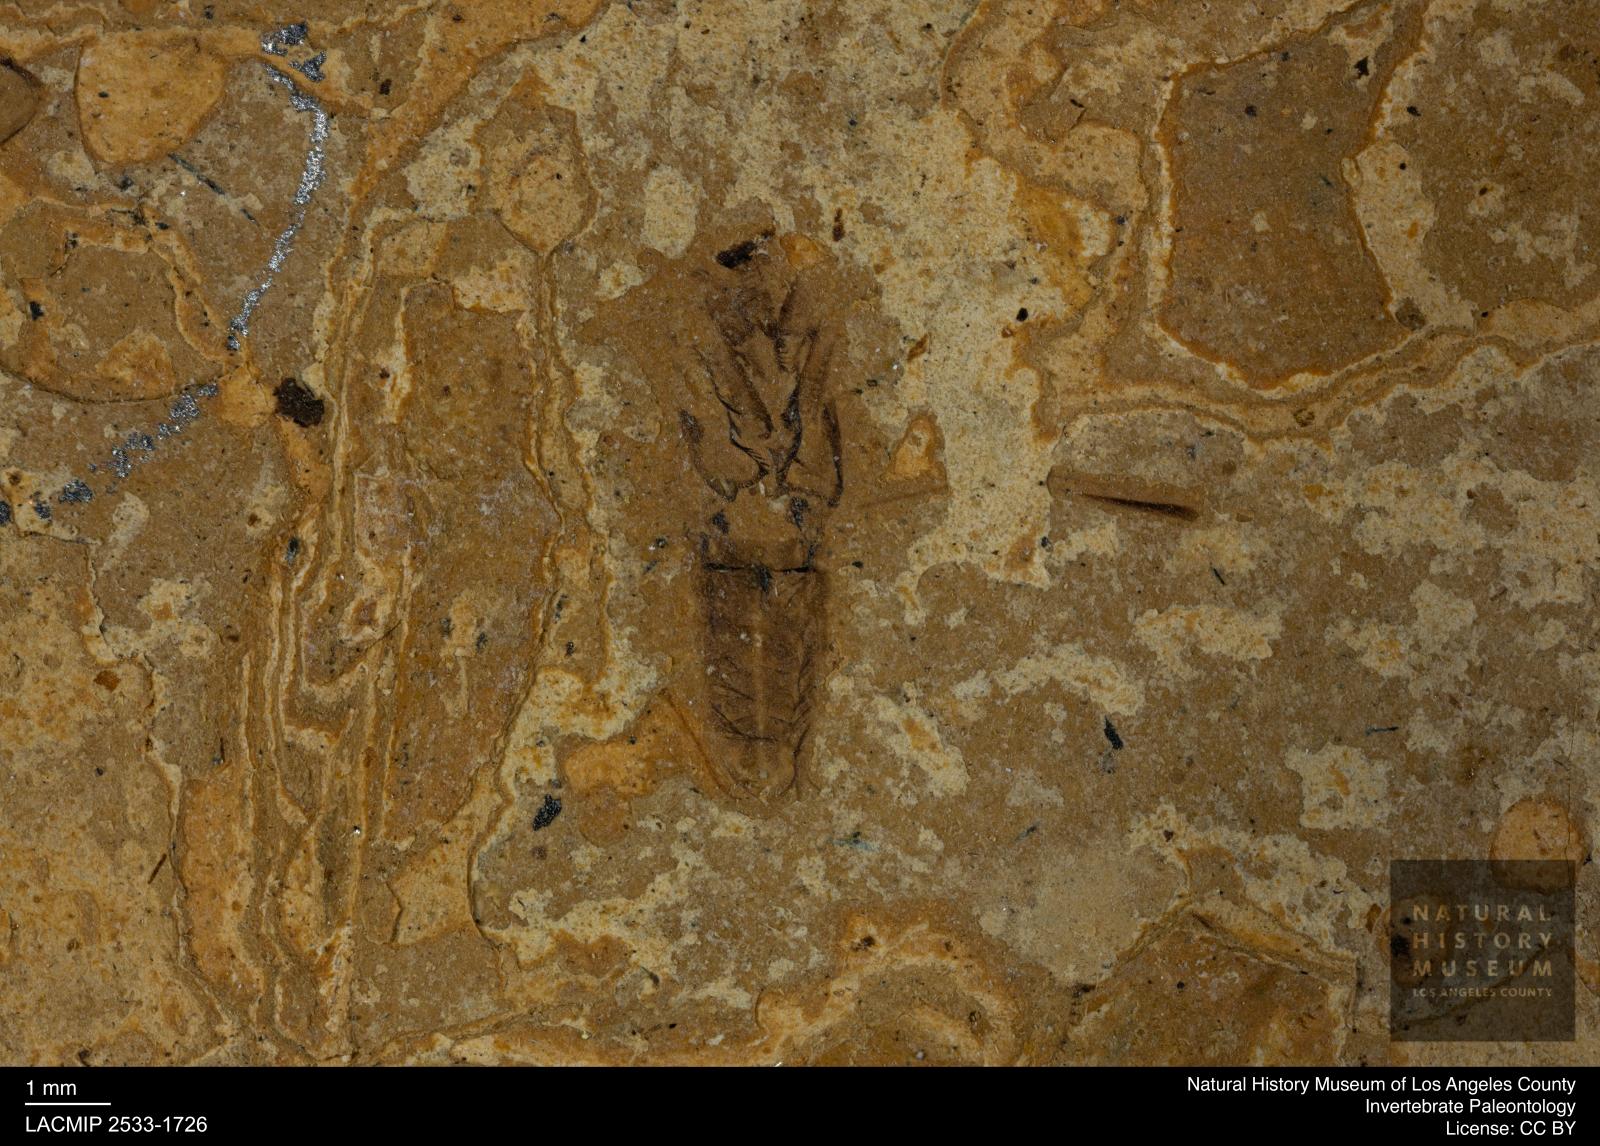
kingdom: Animalia
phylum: Arthropoda
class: Insecta
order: Hemiptera
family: Notonectidae
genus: Notonecta
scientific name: Notonecta
